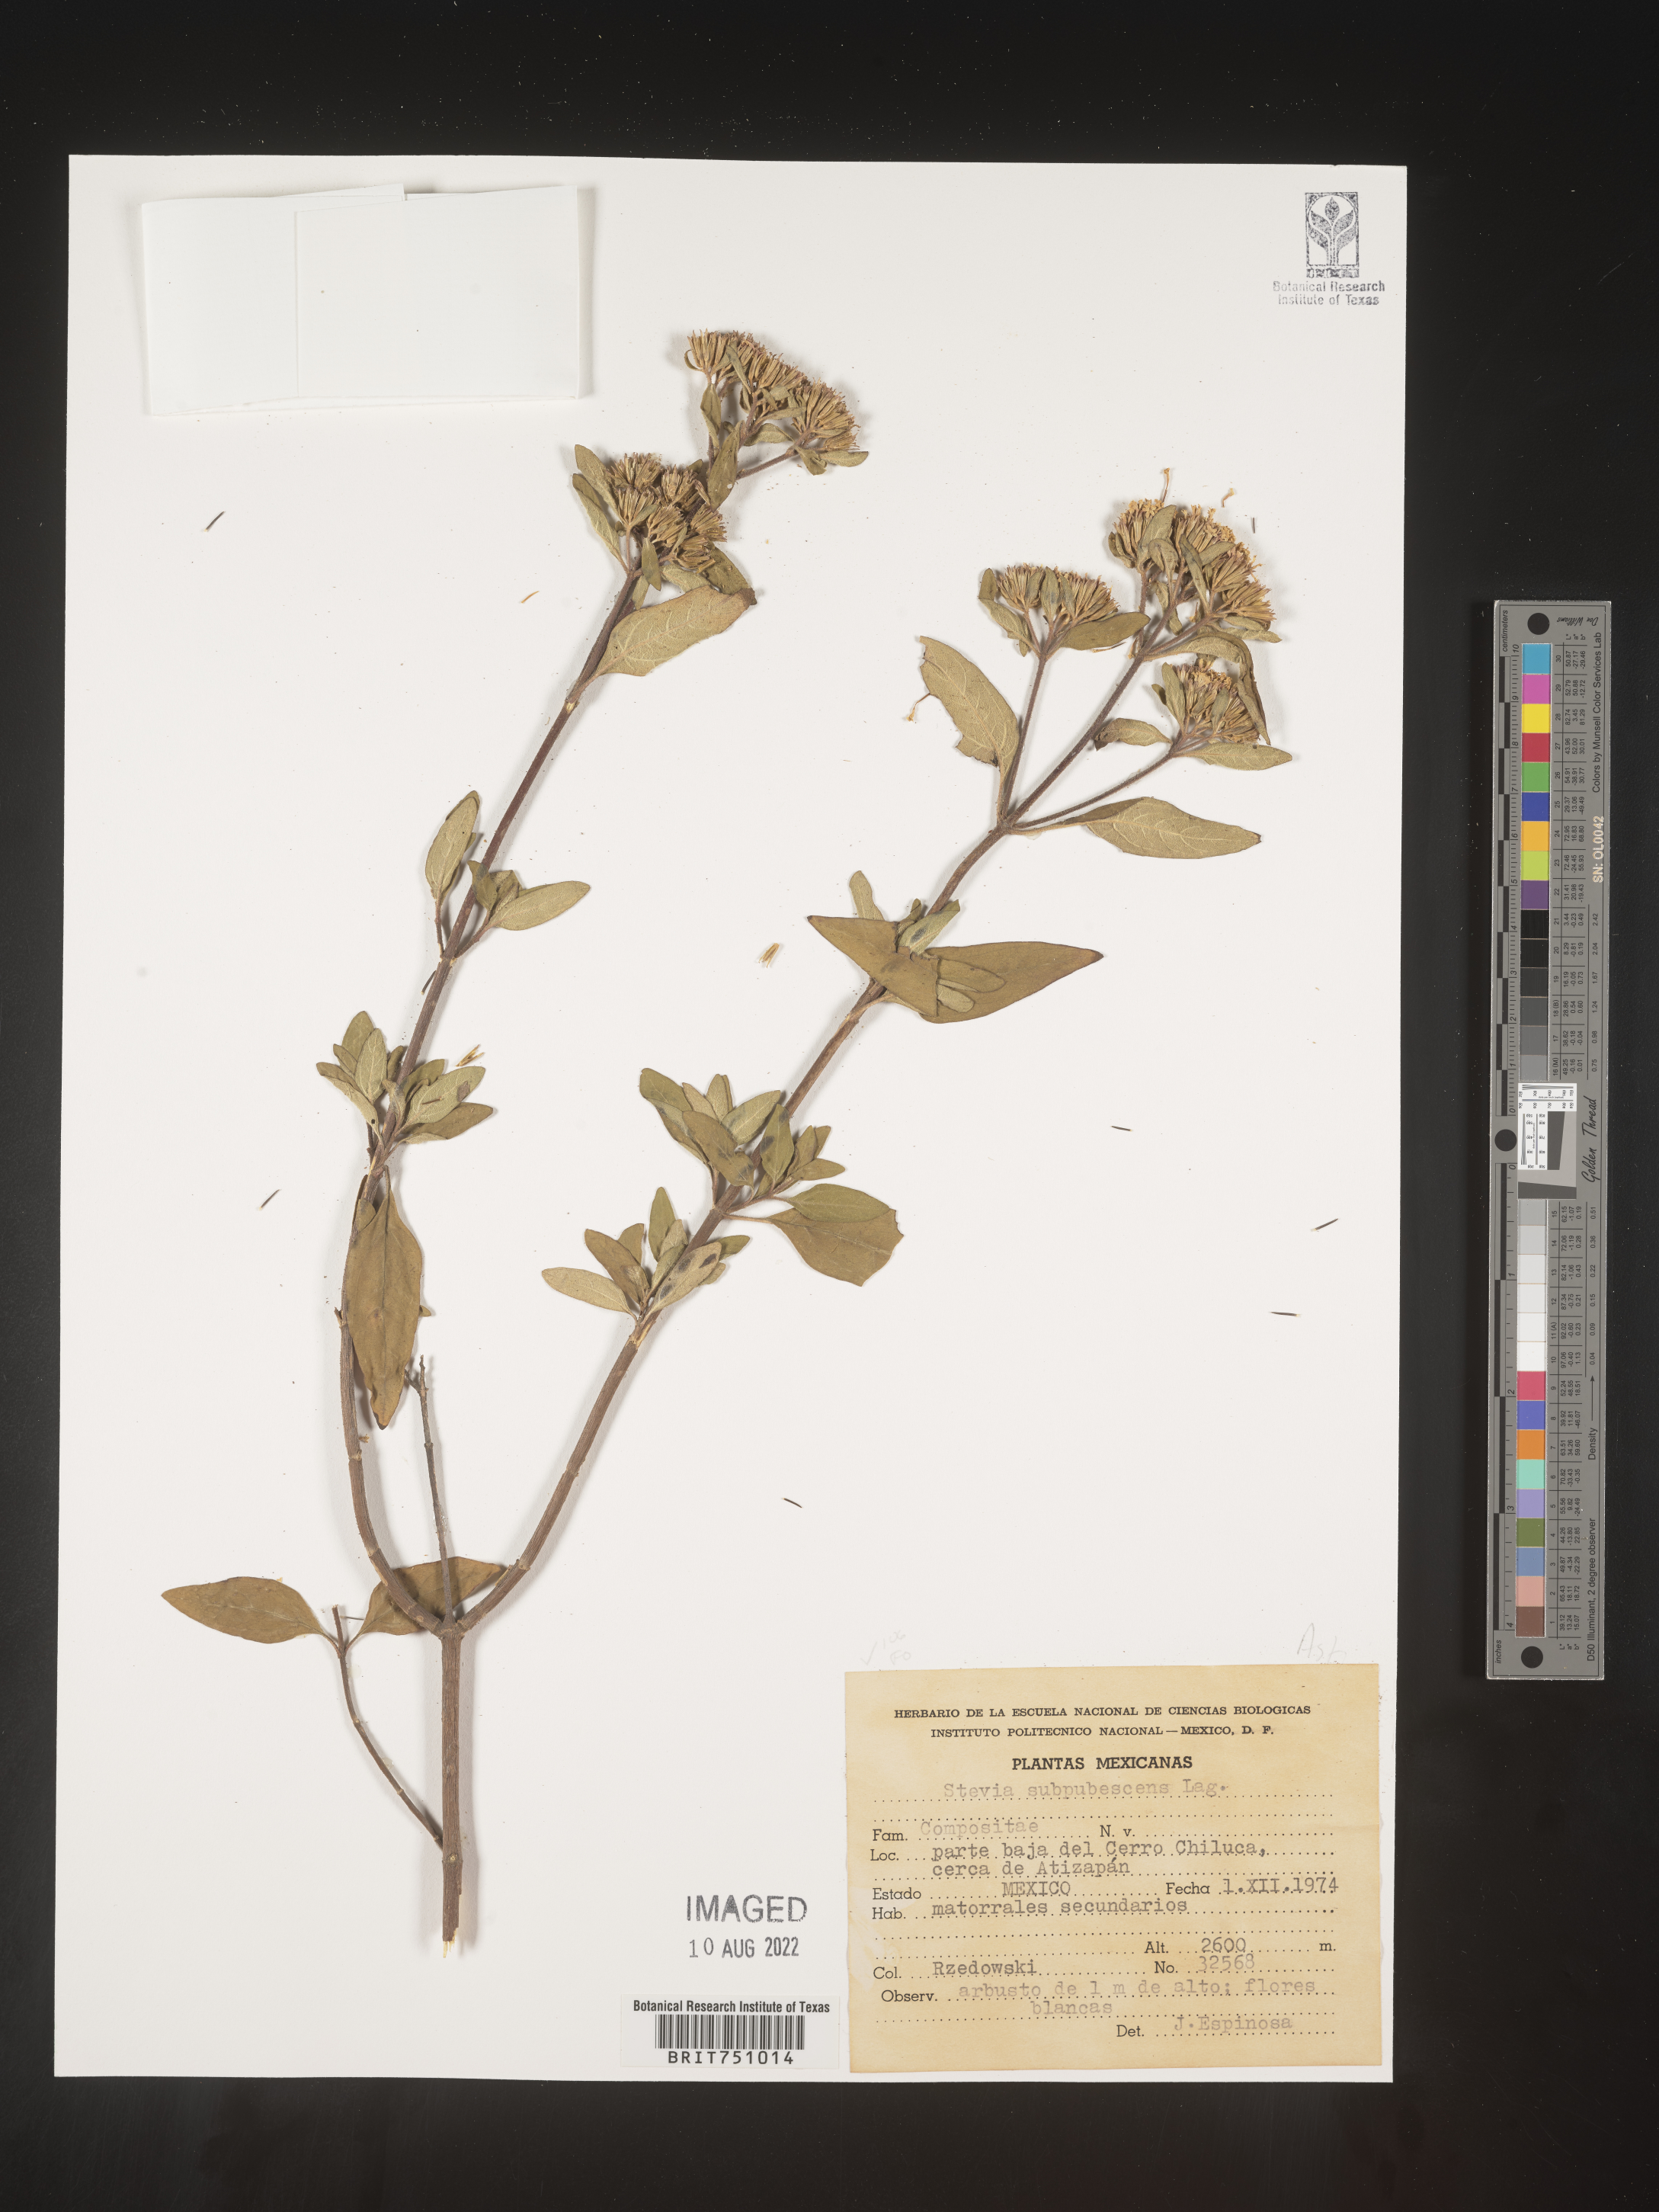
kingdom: Plantae
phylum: Tracheophyta
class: Magnoliopsida
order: Asterales
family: Asteraceae
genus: Stevia
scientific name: Stevia subpubescens
